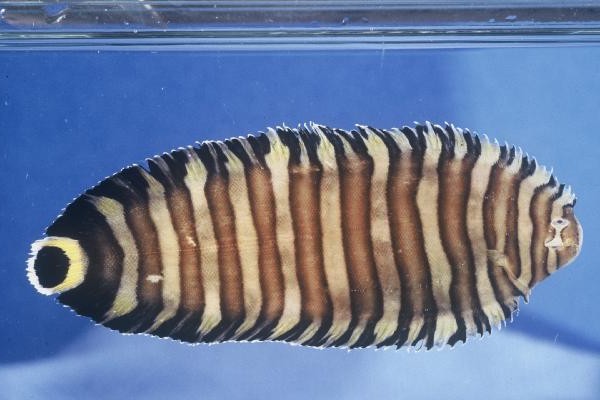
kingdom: Animalia
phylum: Chordata
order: Pleuronectiformes
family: Soleidae
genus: Zebrias
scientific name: Zebrias
